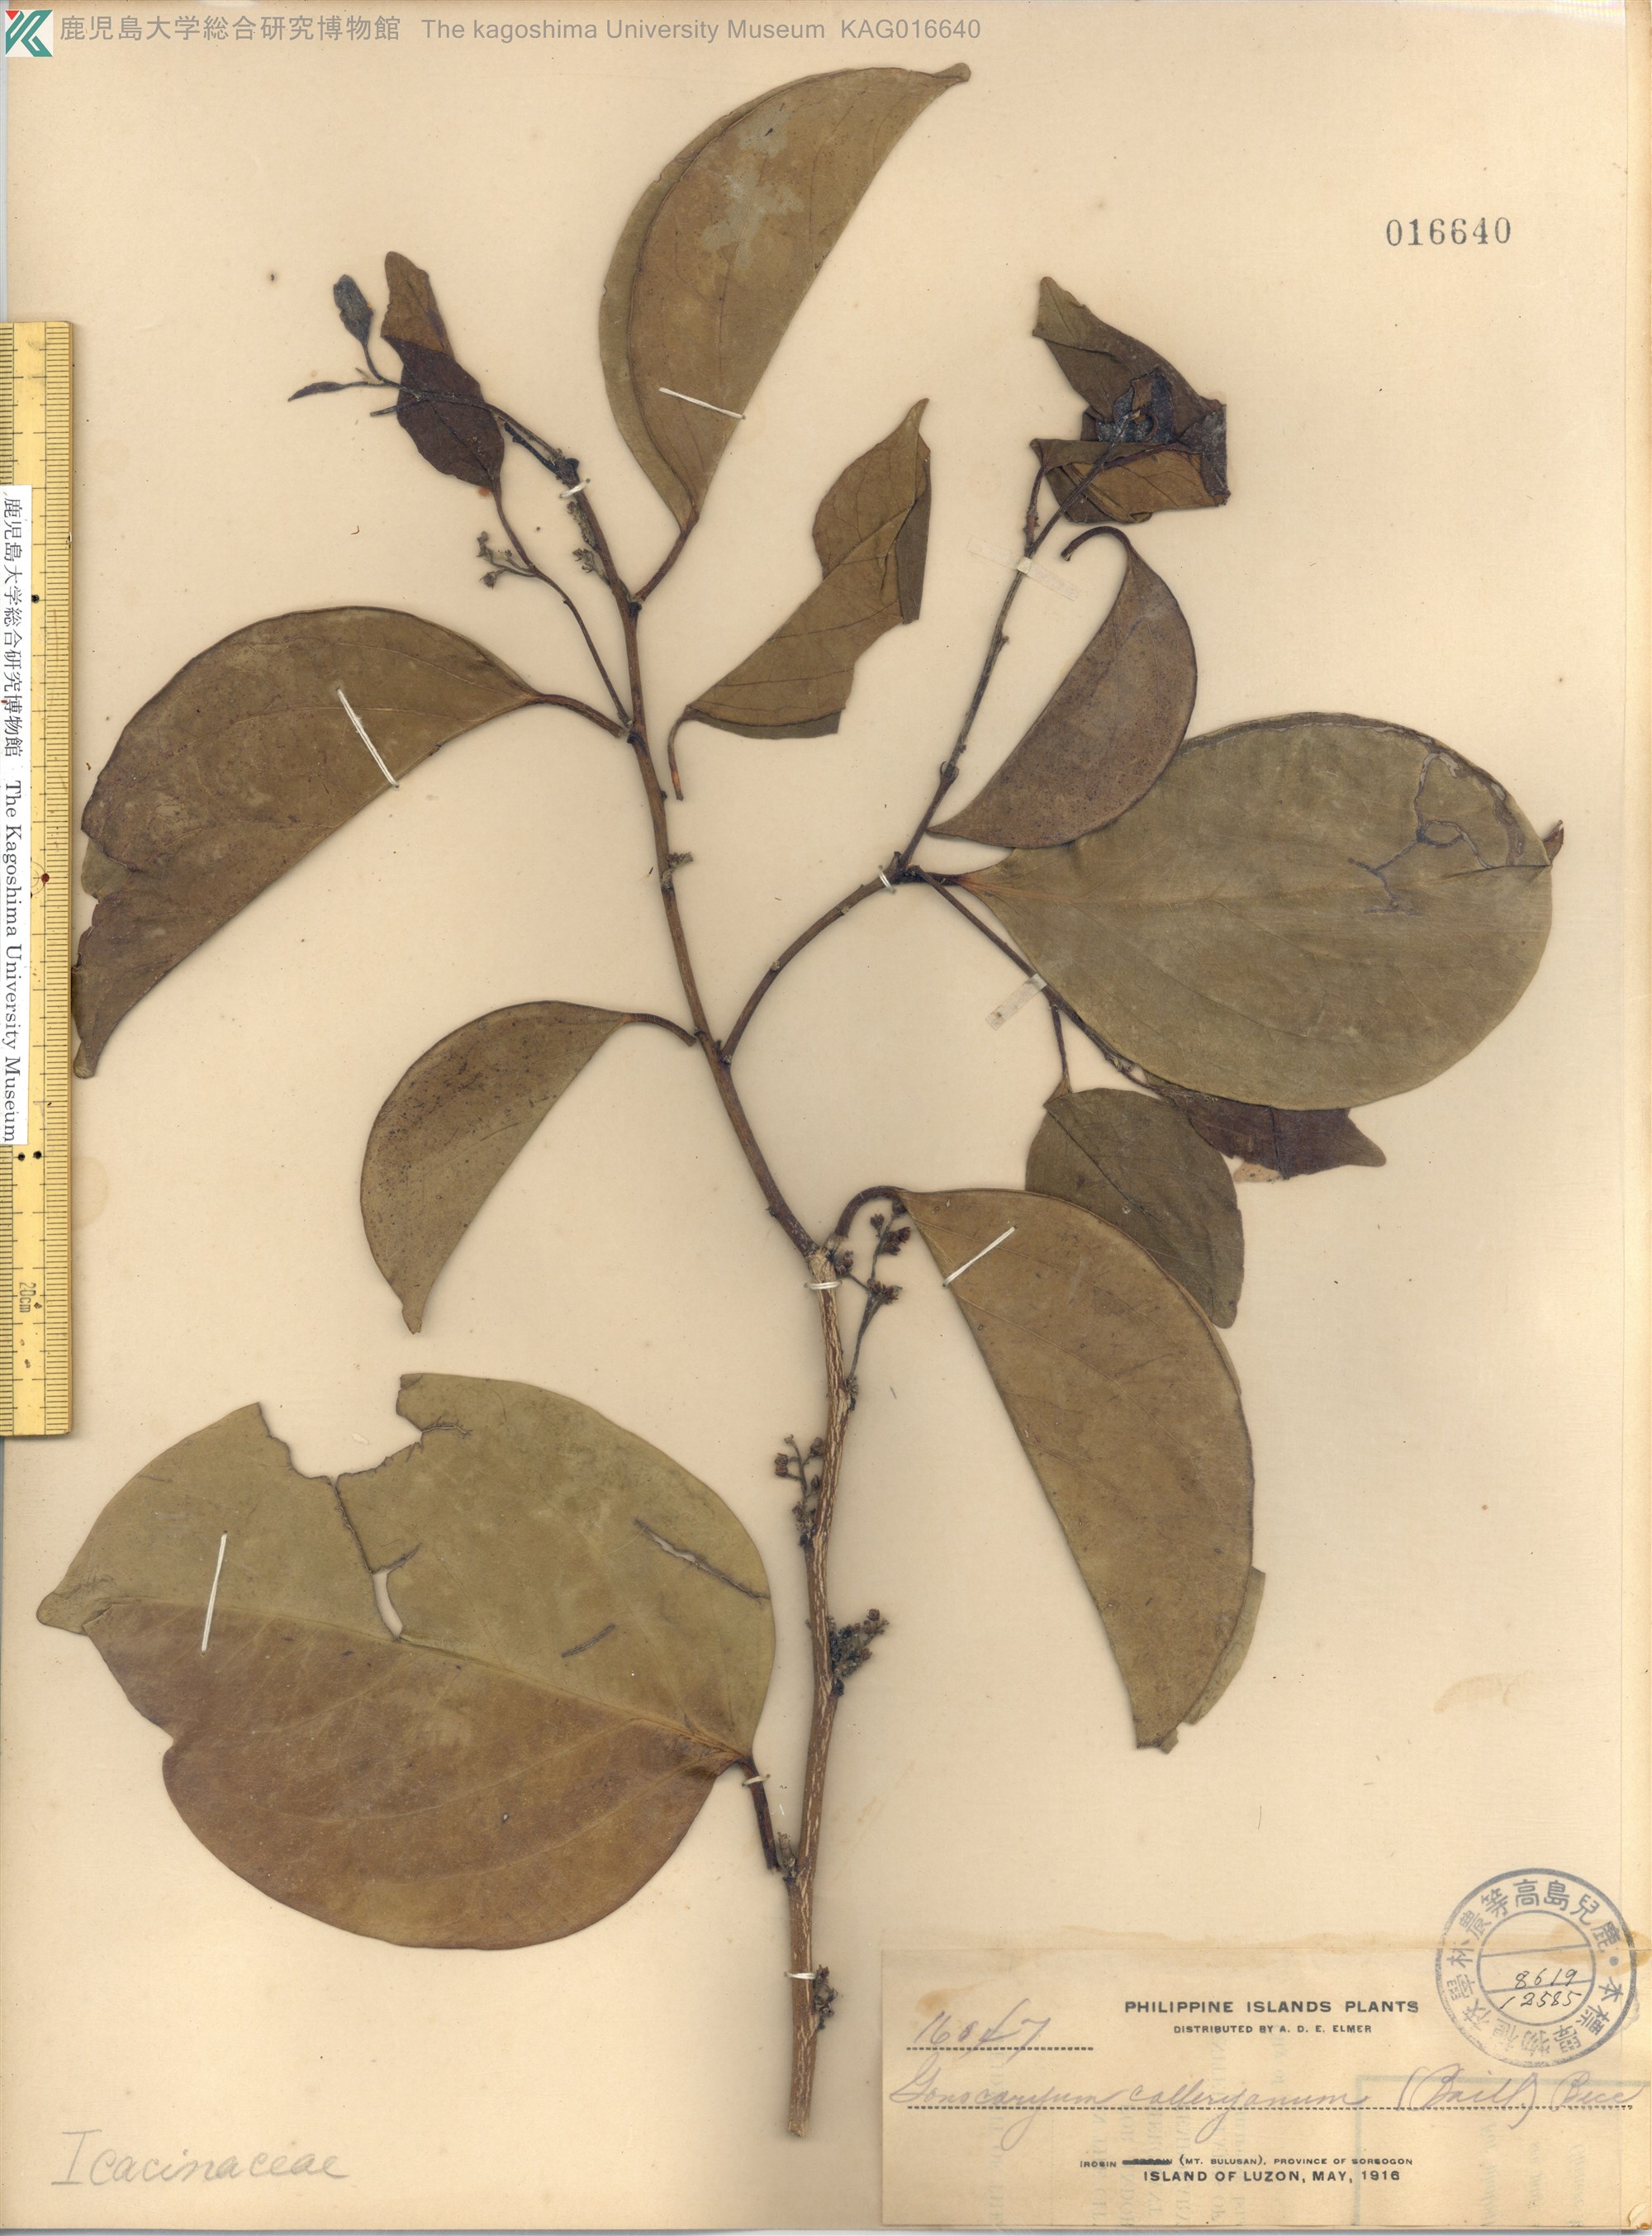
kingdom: Plantae
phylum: Tracheophyta
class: Magnoliopsida
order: Cardiopteridales
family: Cardiopteridaceae
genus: Gonocaryum
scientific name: Gonocaryum calleryanum
